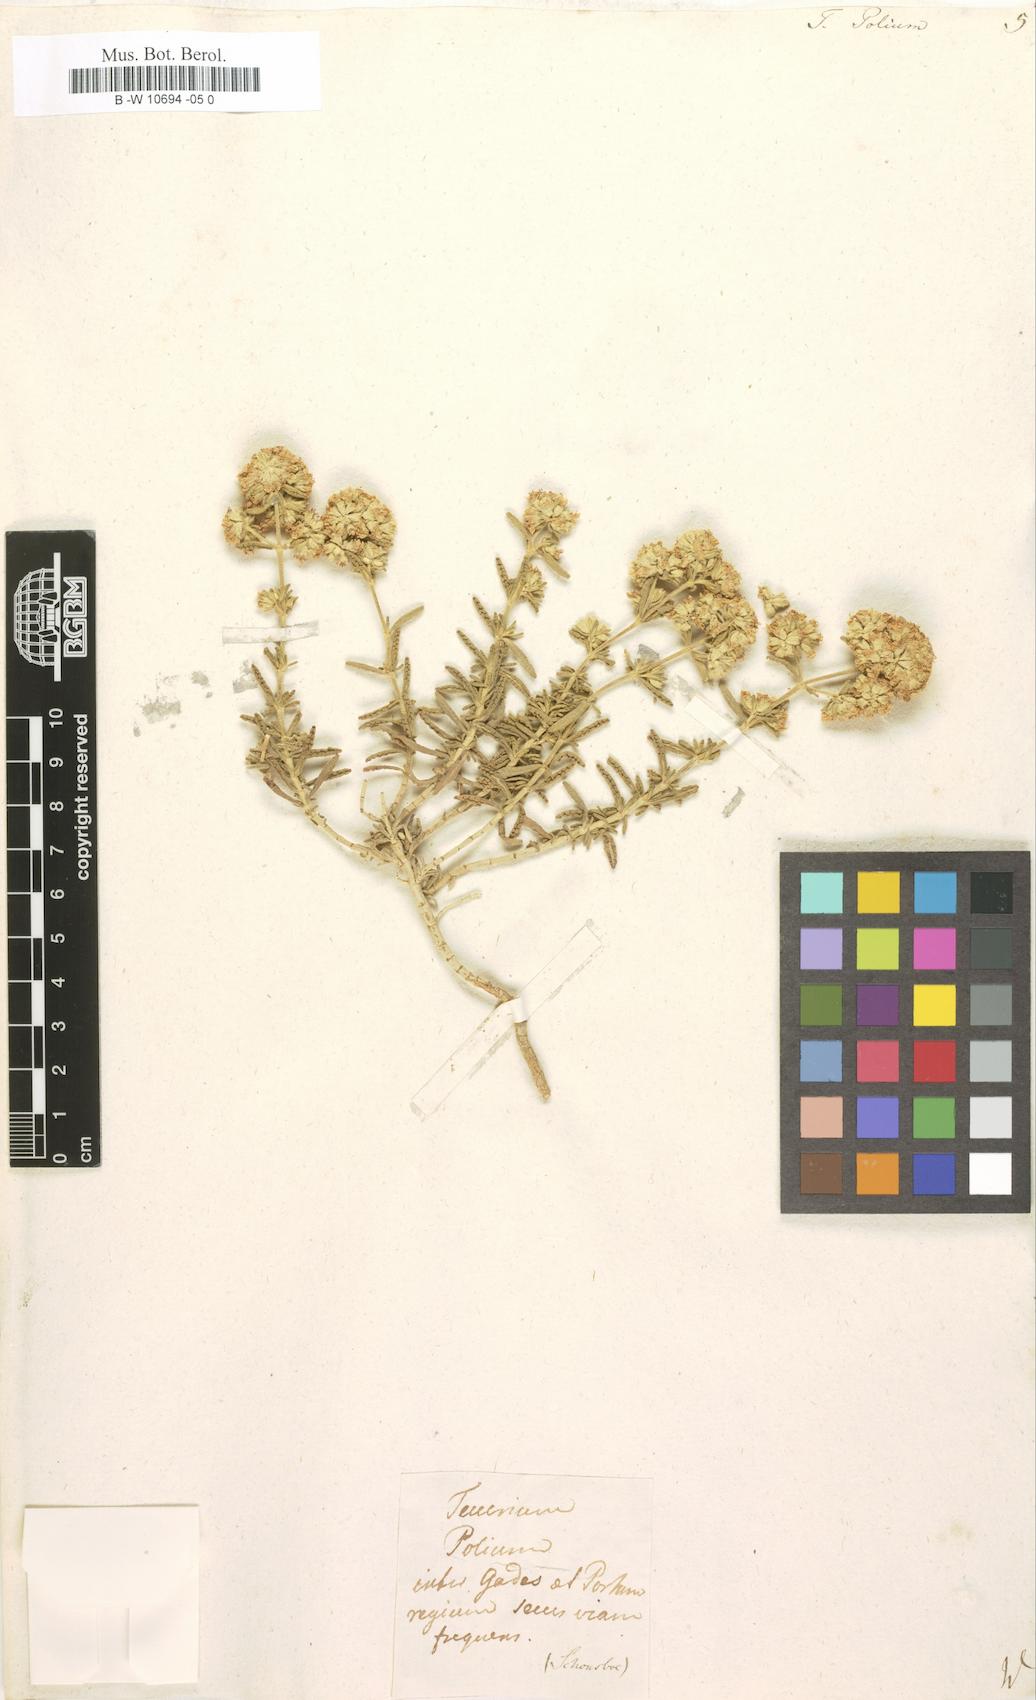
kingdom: Plantae
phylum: Tracheophyta
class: Magnoliopsida
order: Lamiales
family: Lamiaceae
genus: Teucrium
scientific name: Teucrium polium
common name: Poley
